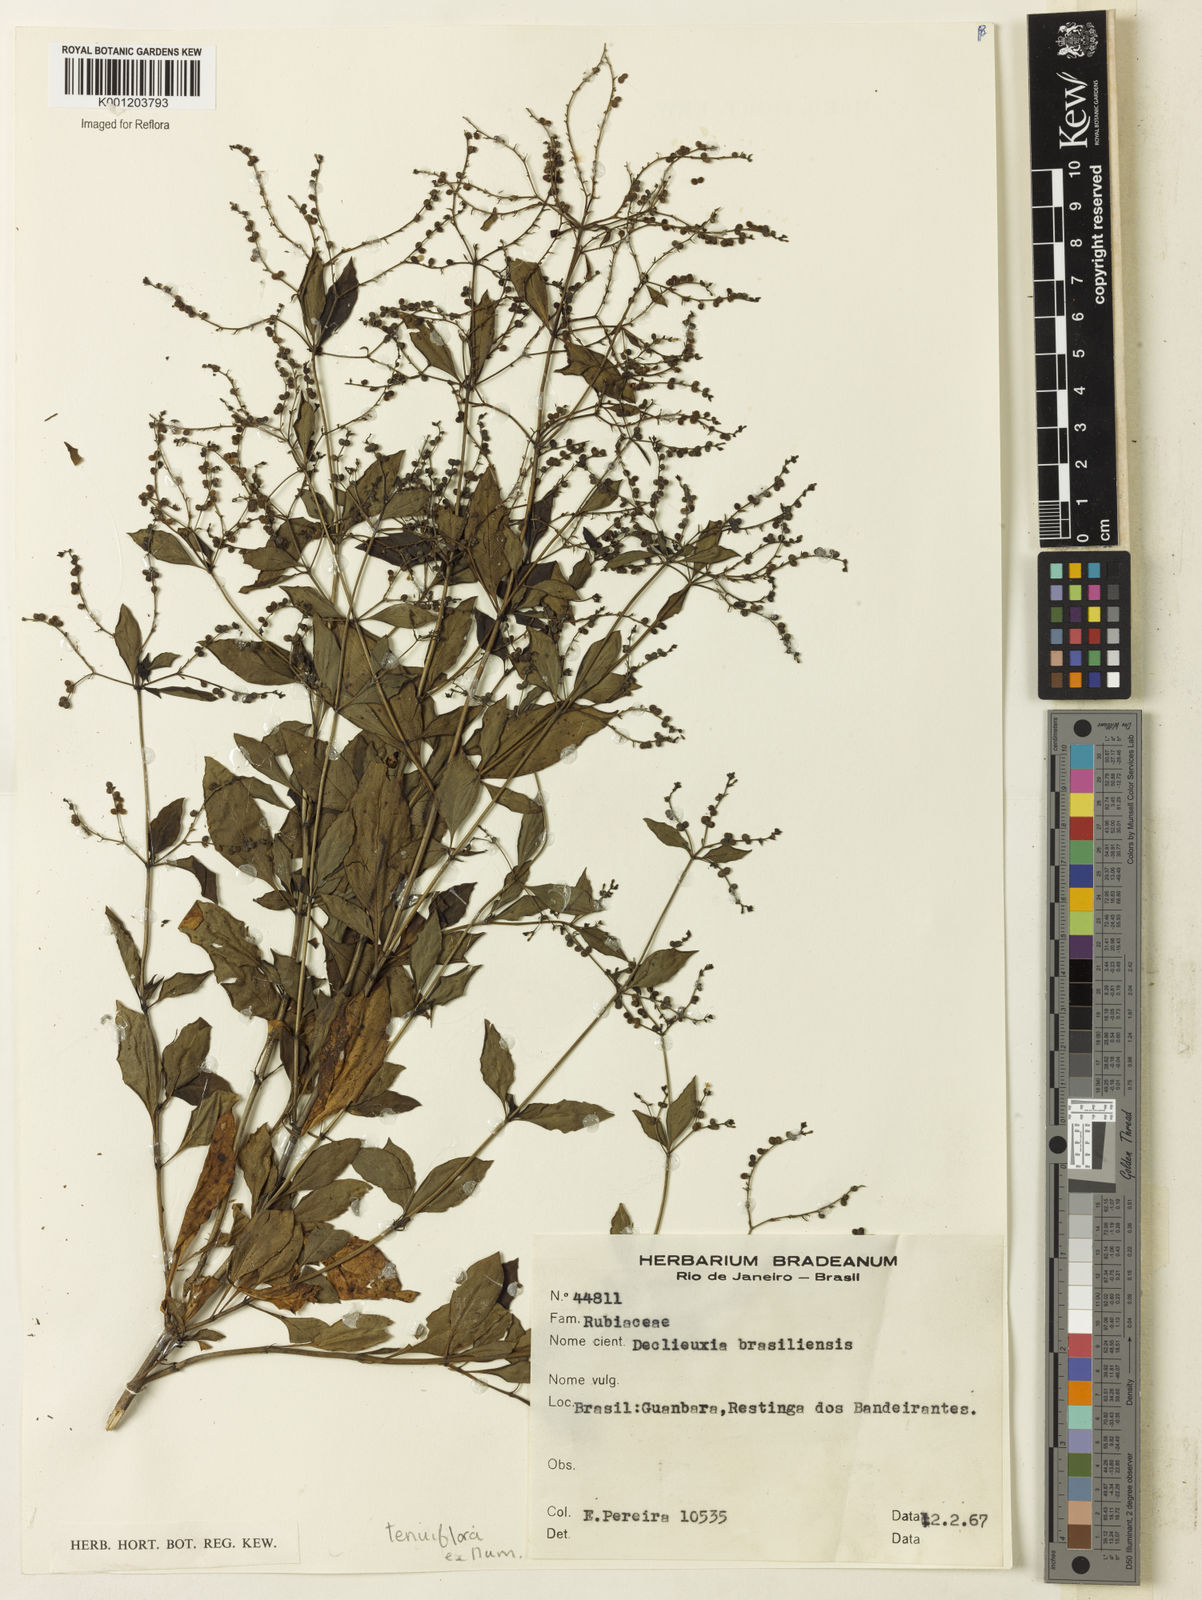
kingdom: Plantae
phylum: Tracheophyta
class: Magnoliopsida
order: Gentianales
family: Rubiaceae
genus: Declieuxia
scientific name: Declieuxia tenuiflora
